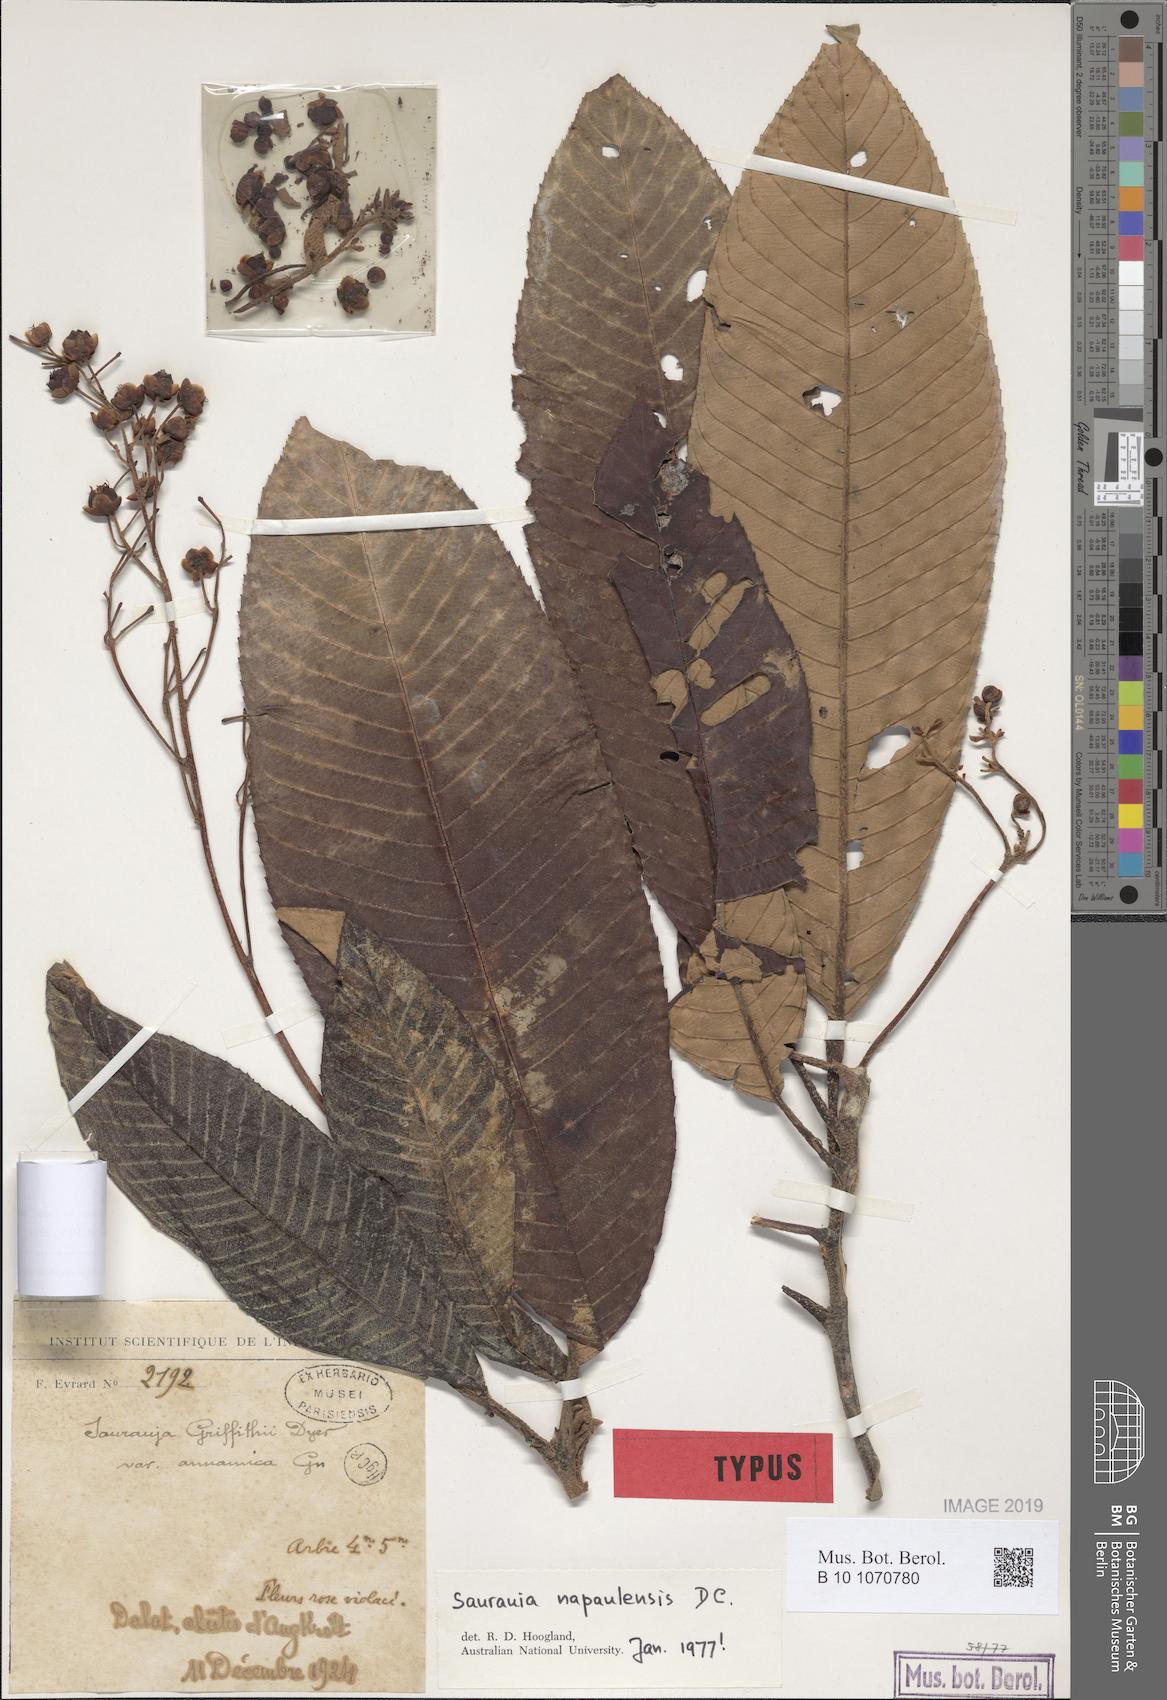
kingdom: Plantae
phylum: Tracheophyta
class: Magnoliopsida
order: Ericales
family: Actinidiaceae
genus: Saurauia
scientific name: Saurauia napaulensis
